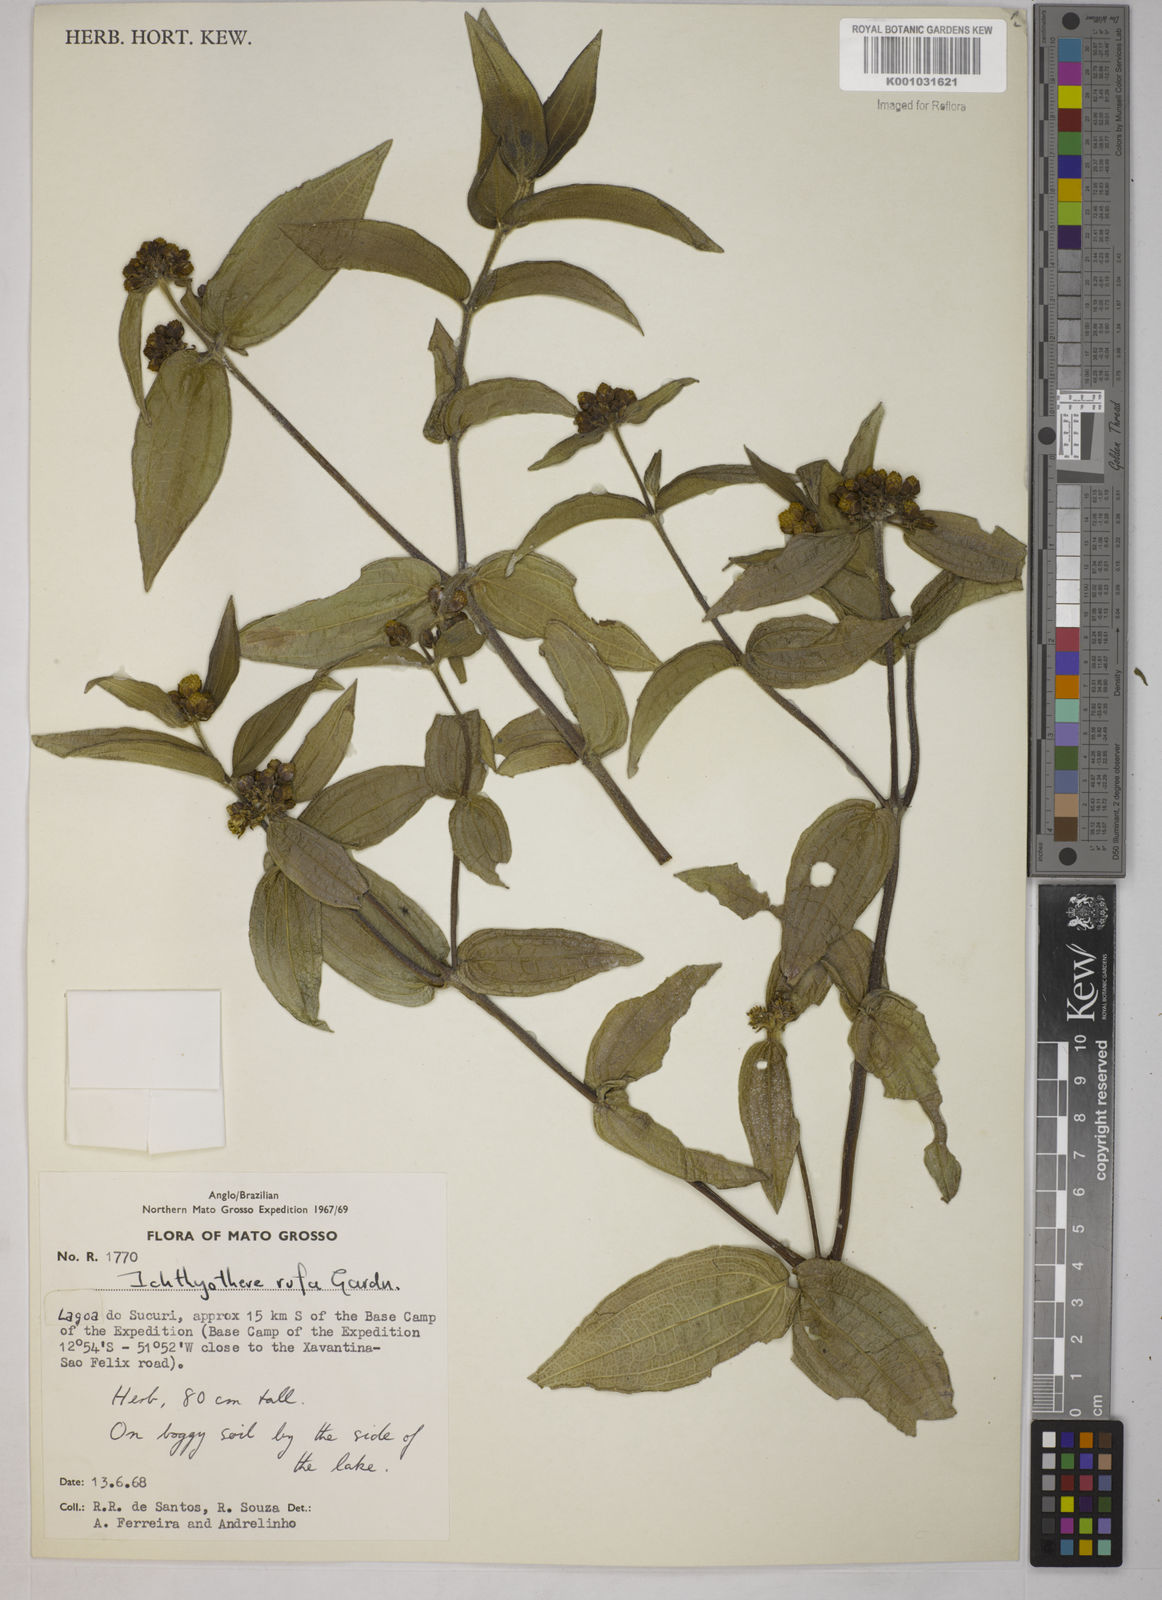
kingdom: Plantae
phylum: Tracheophyta
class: Magnoliopsida
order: Asterales
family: Asteraceae
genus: Ichthyothere
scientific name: Ichthyothere rufa
